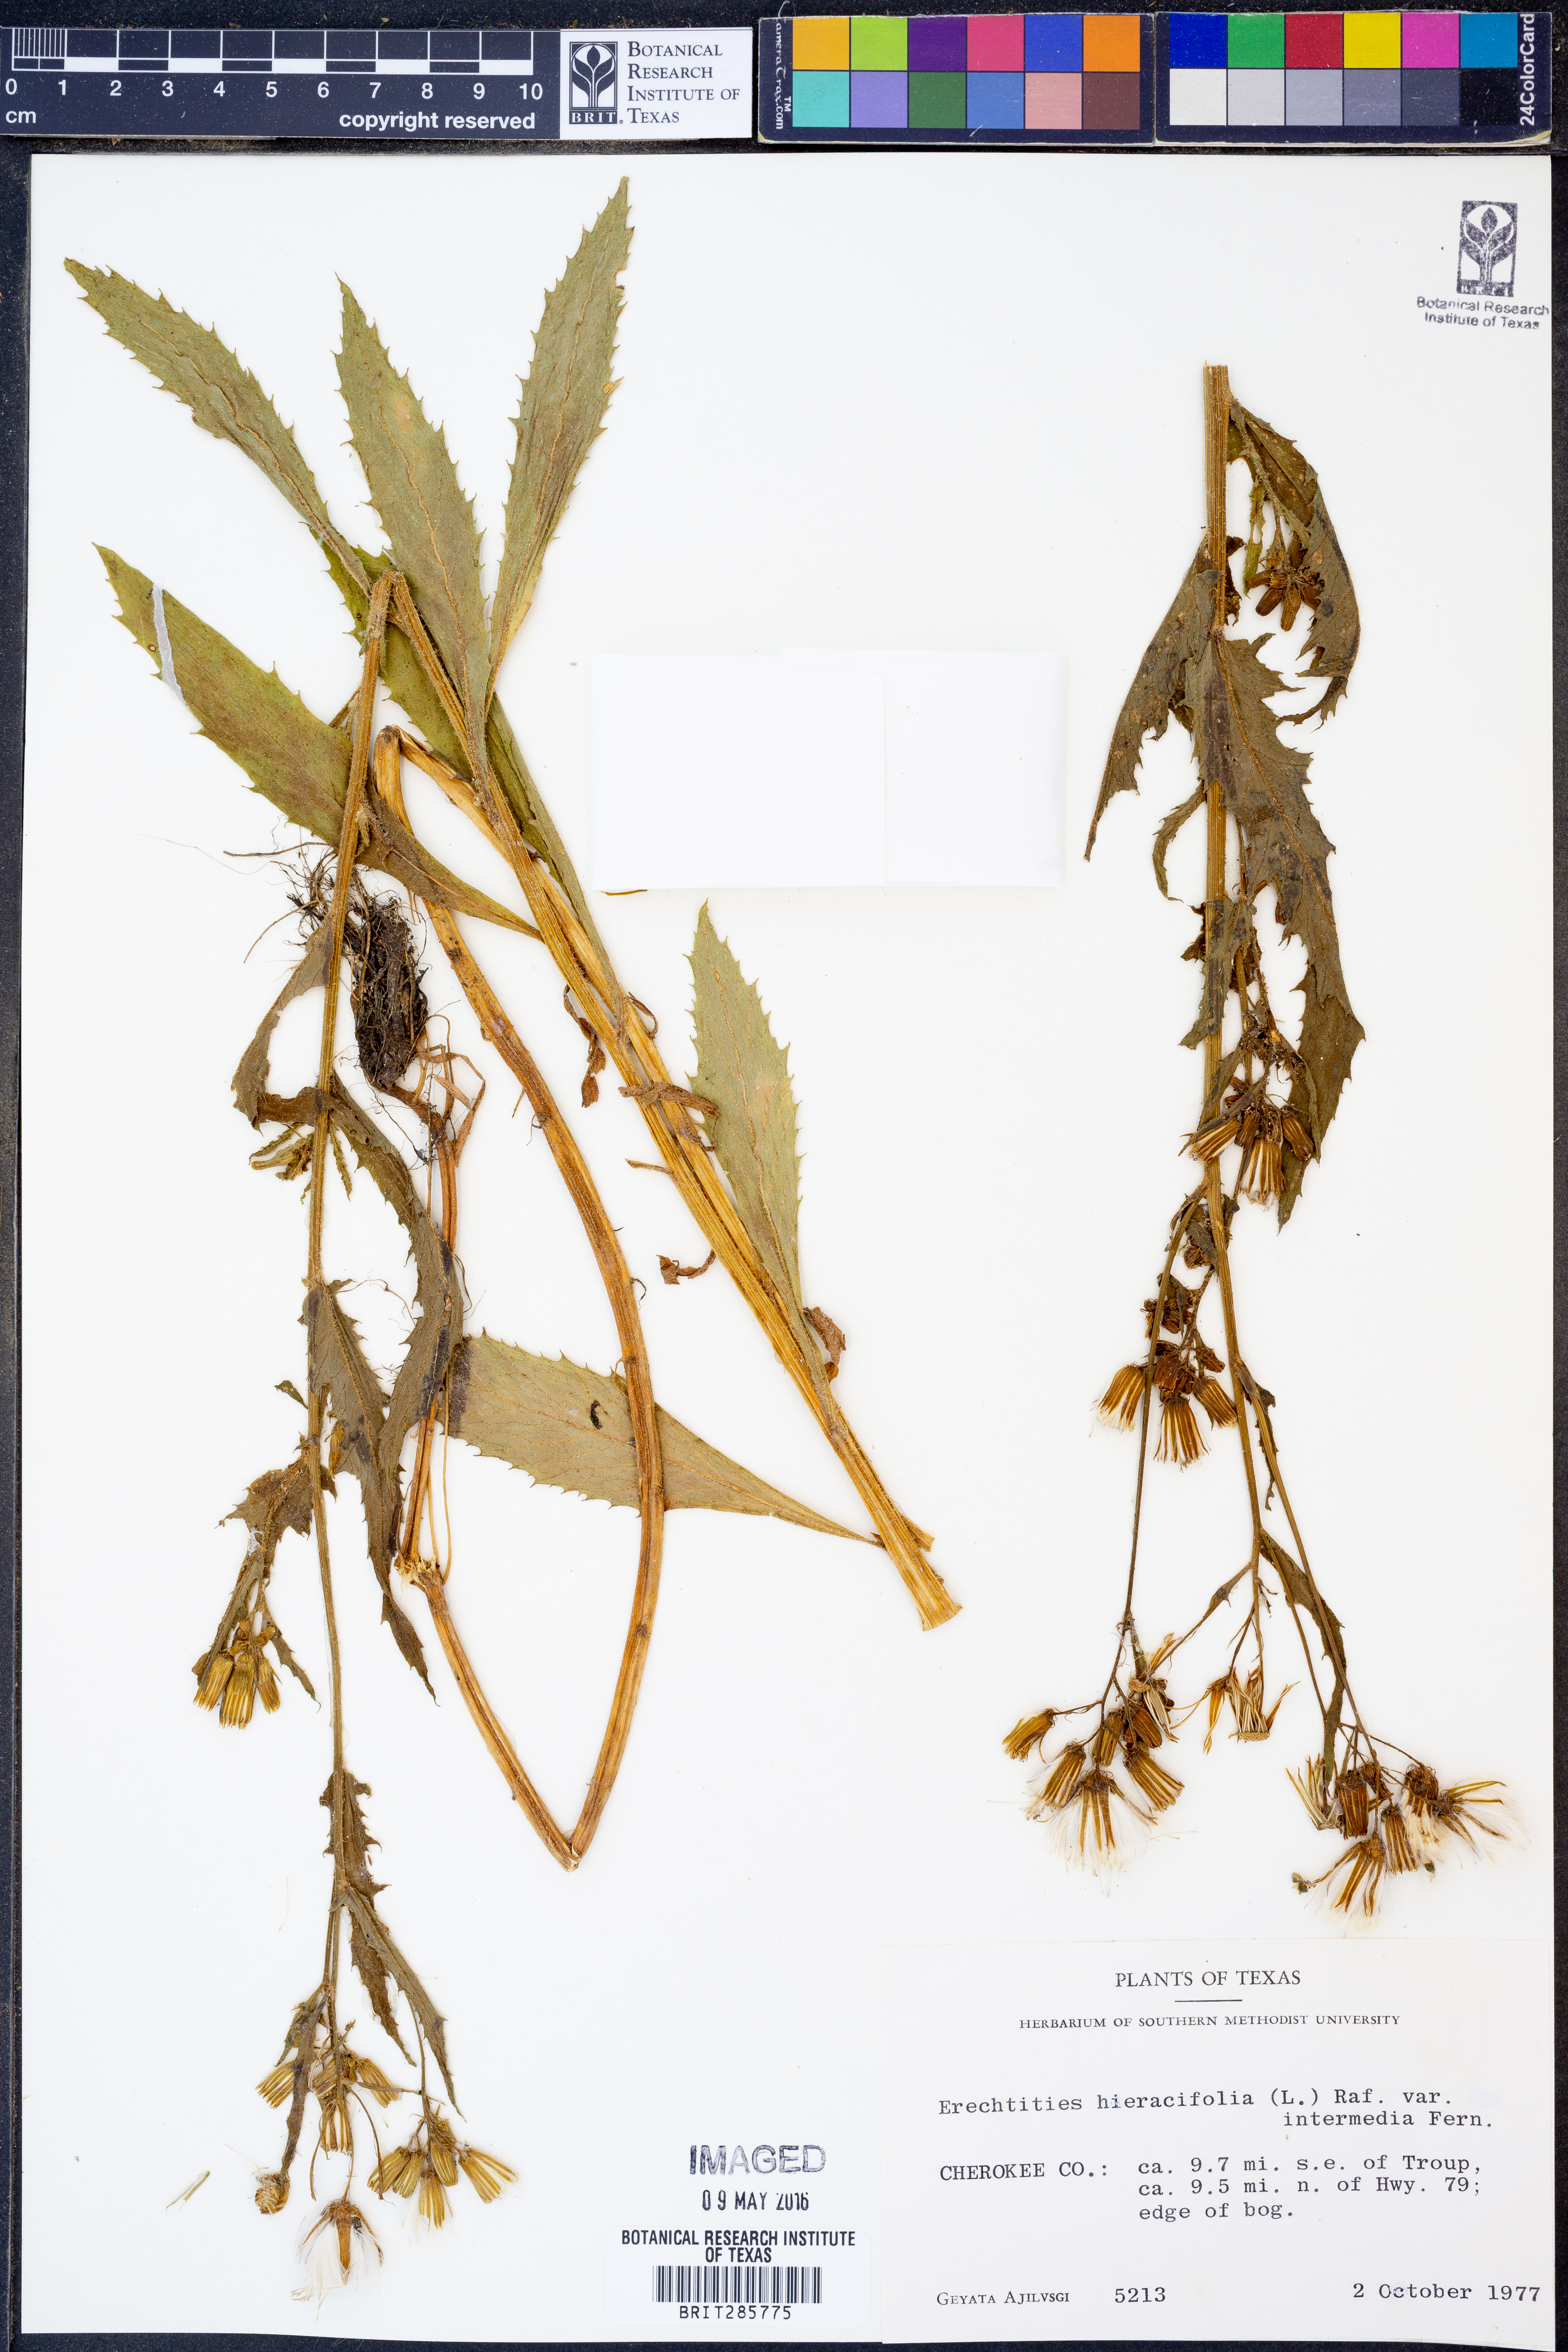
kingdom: Plantae
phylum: Tracheophyta
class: Magnoliopsida
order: Asterales
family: Asteraceae
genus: Erechtites
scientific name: Erechtites hieraciifolius
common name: American burnweed
